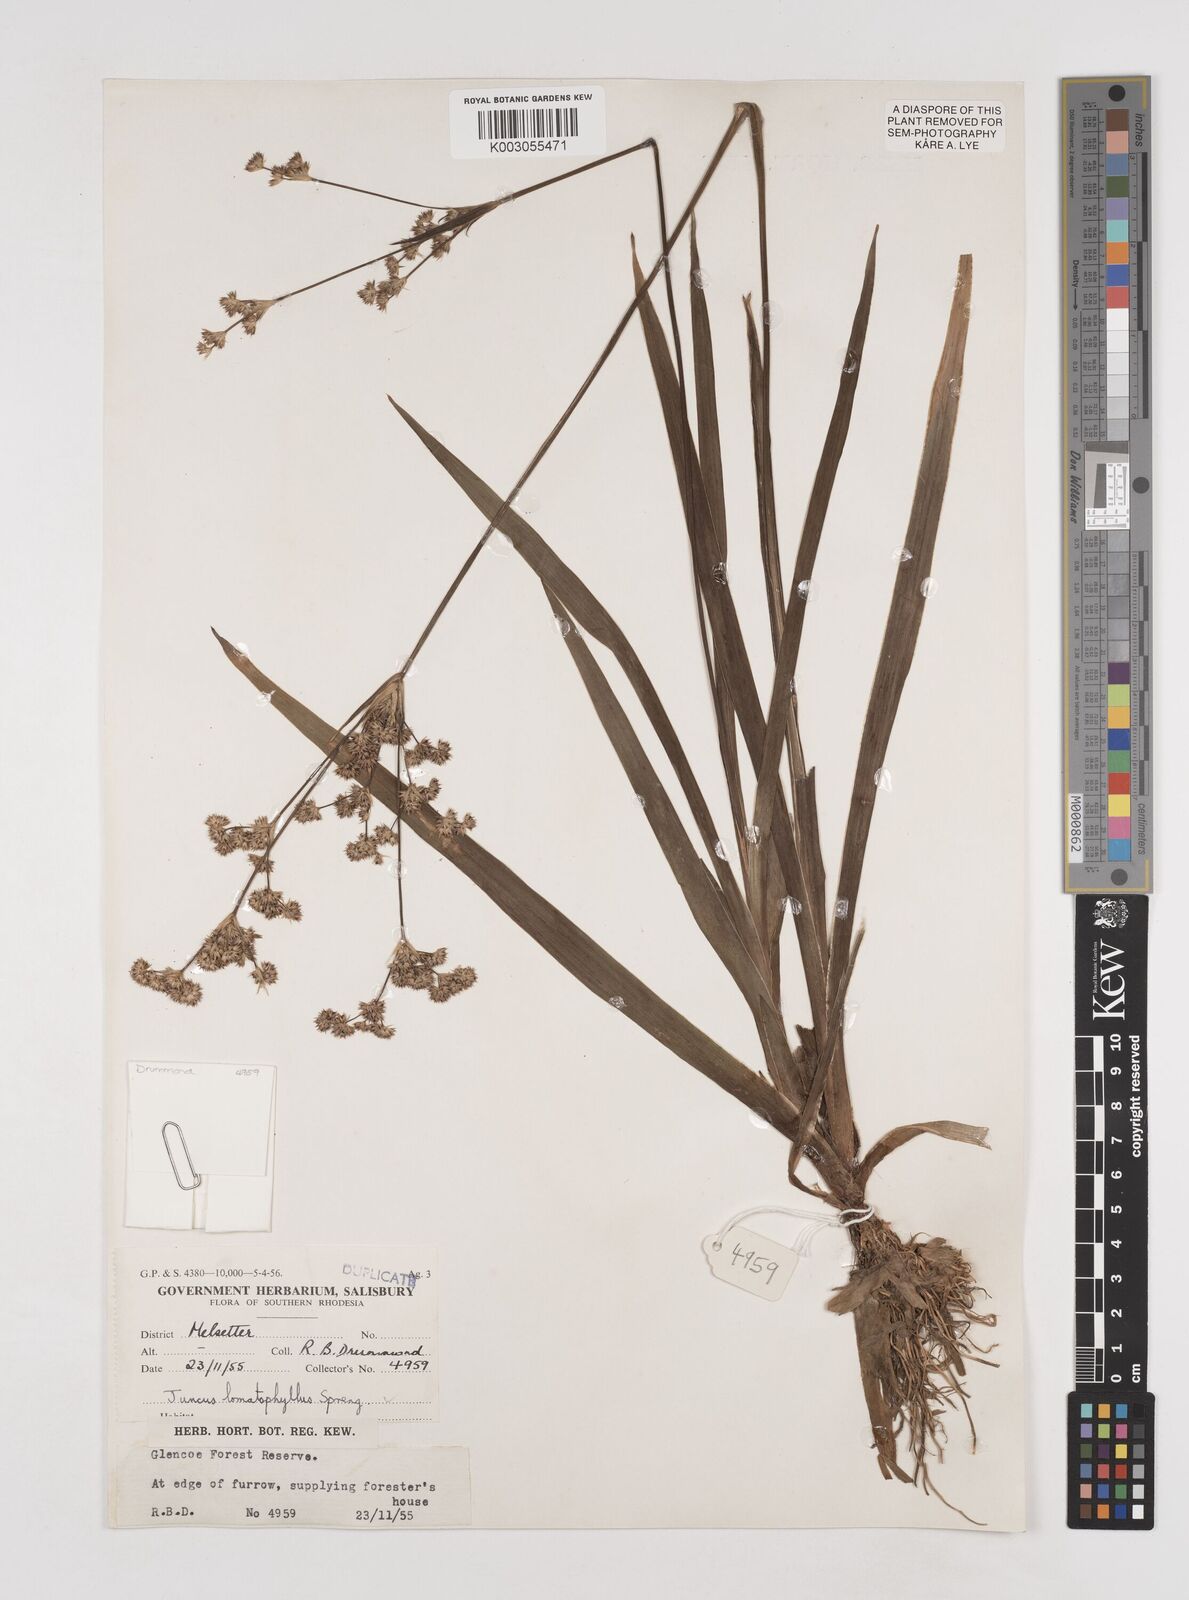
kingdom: Plantae
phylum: Tracheophyta
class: Liliopsida
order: Poales
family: Juncaceae
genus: Juncus
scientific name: Juncus lomatophyllus
